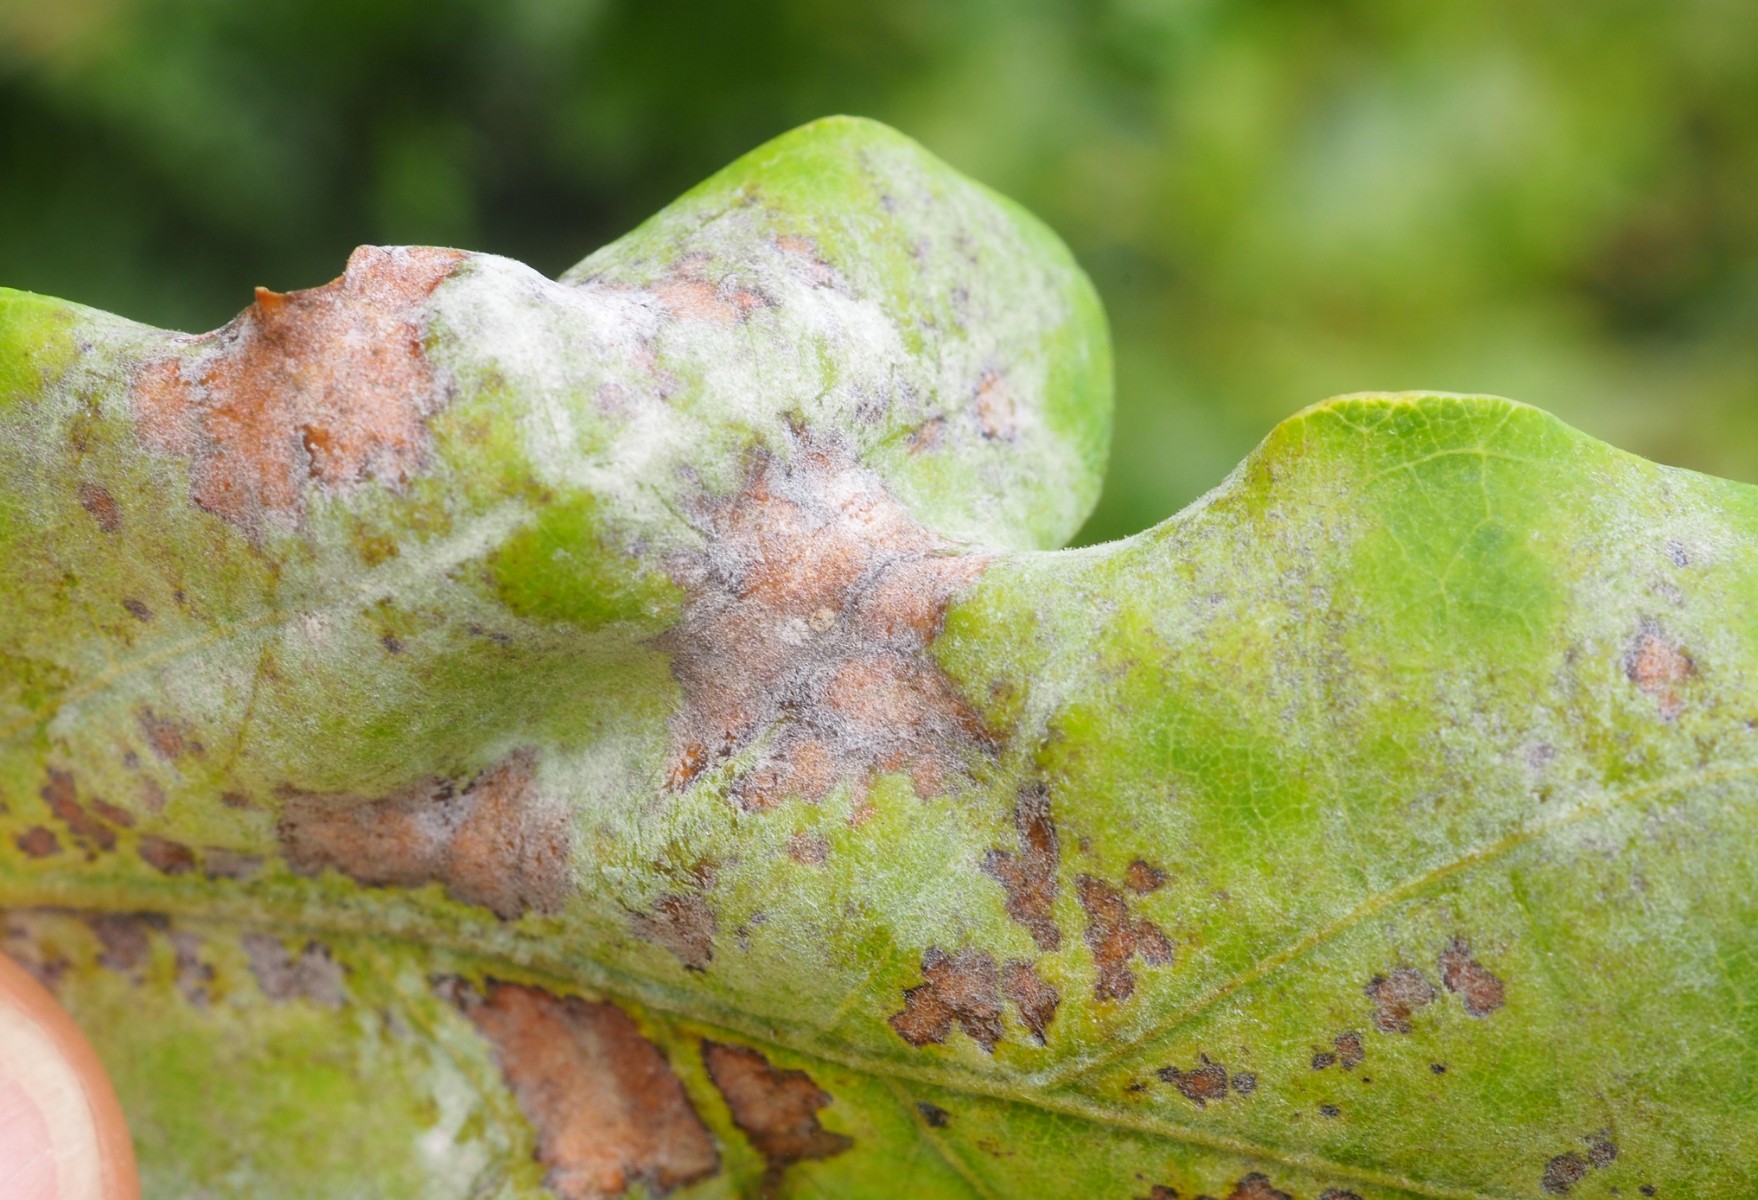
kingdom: Fungi
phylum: Ascomycota
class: Leotiomycetes
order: Helotiales
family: Erysiphaceae
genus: Erysiphe
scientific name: Erysiphe alphitoides
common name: ege-meldug
